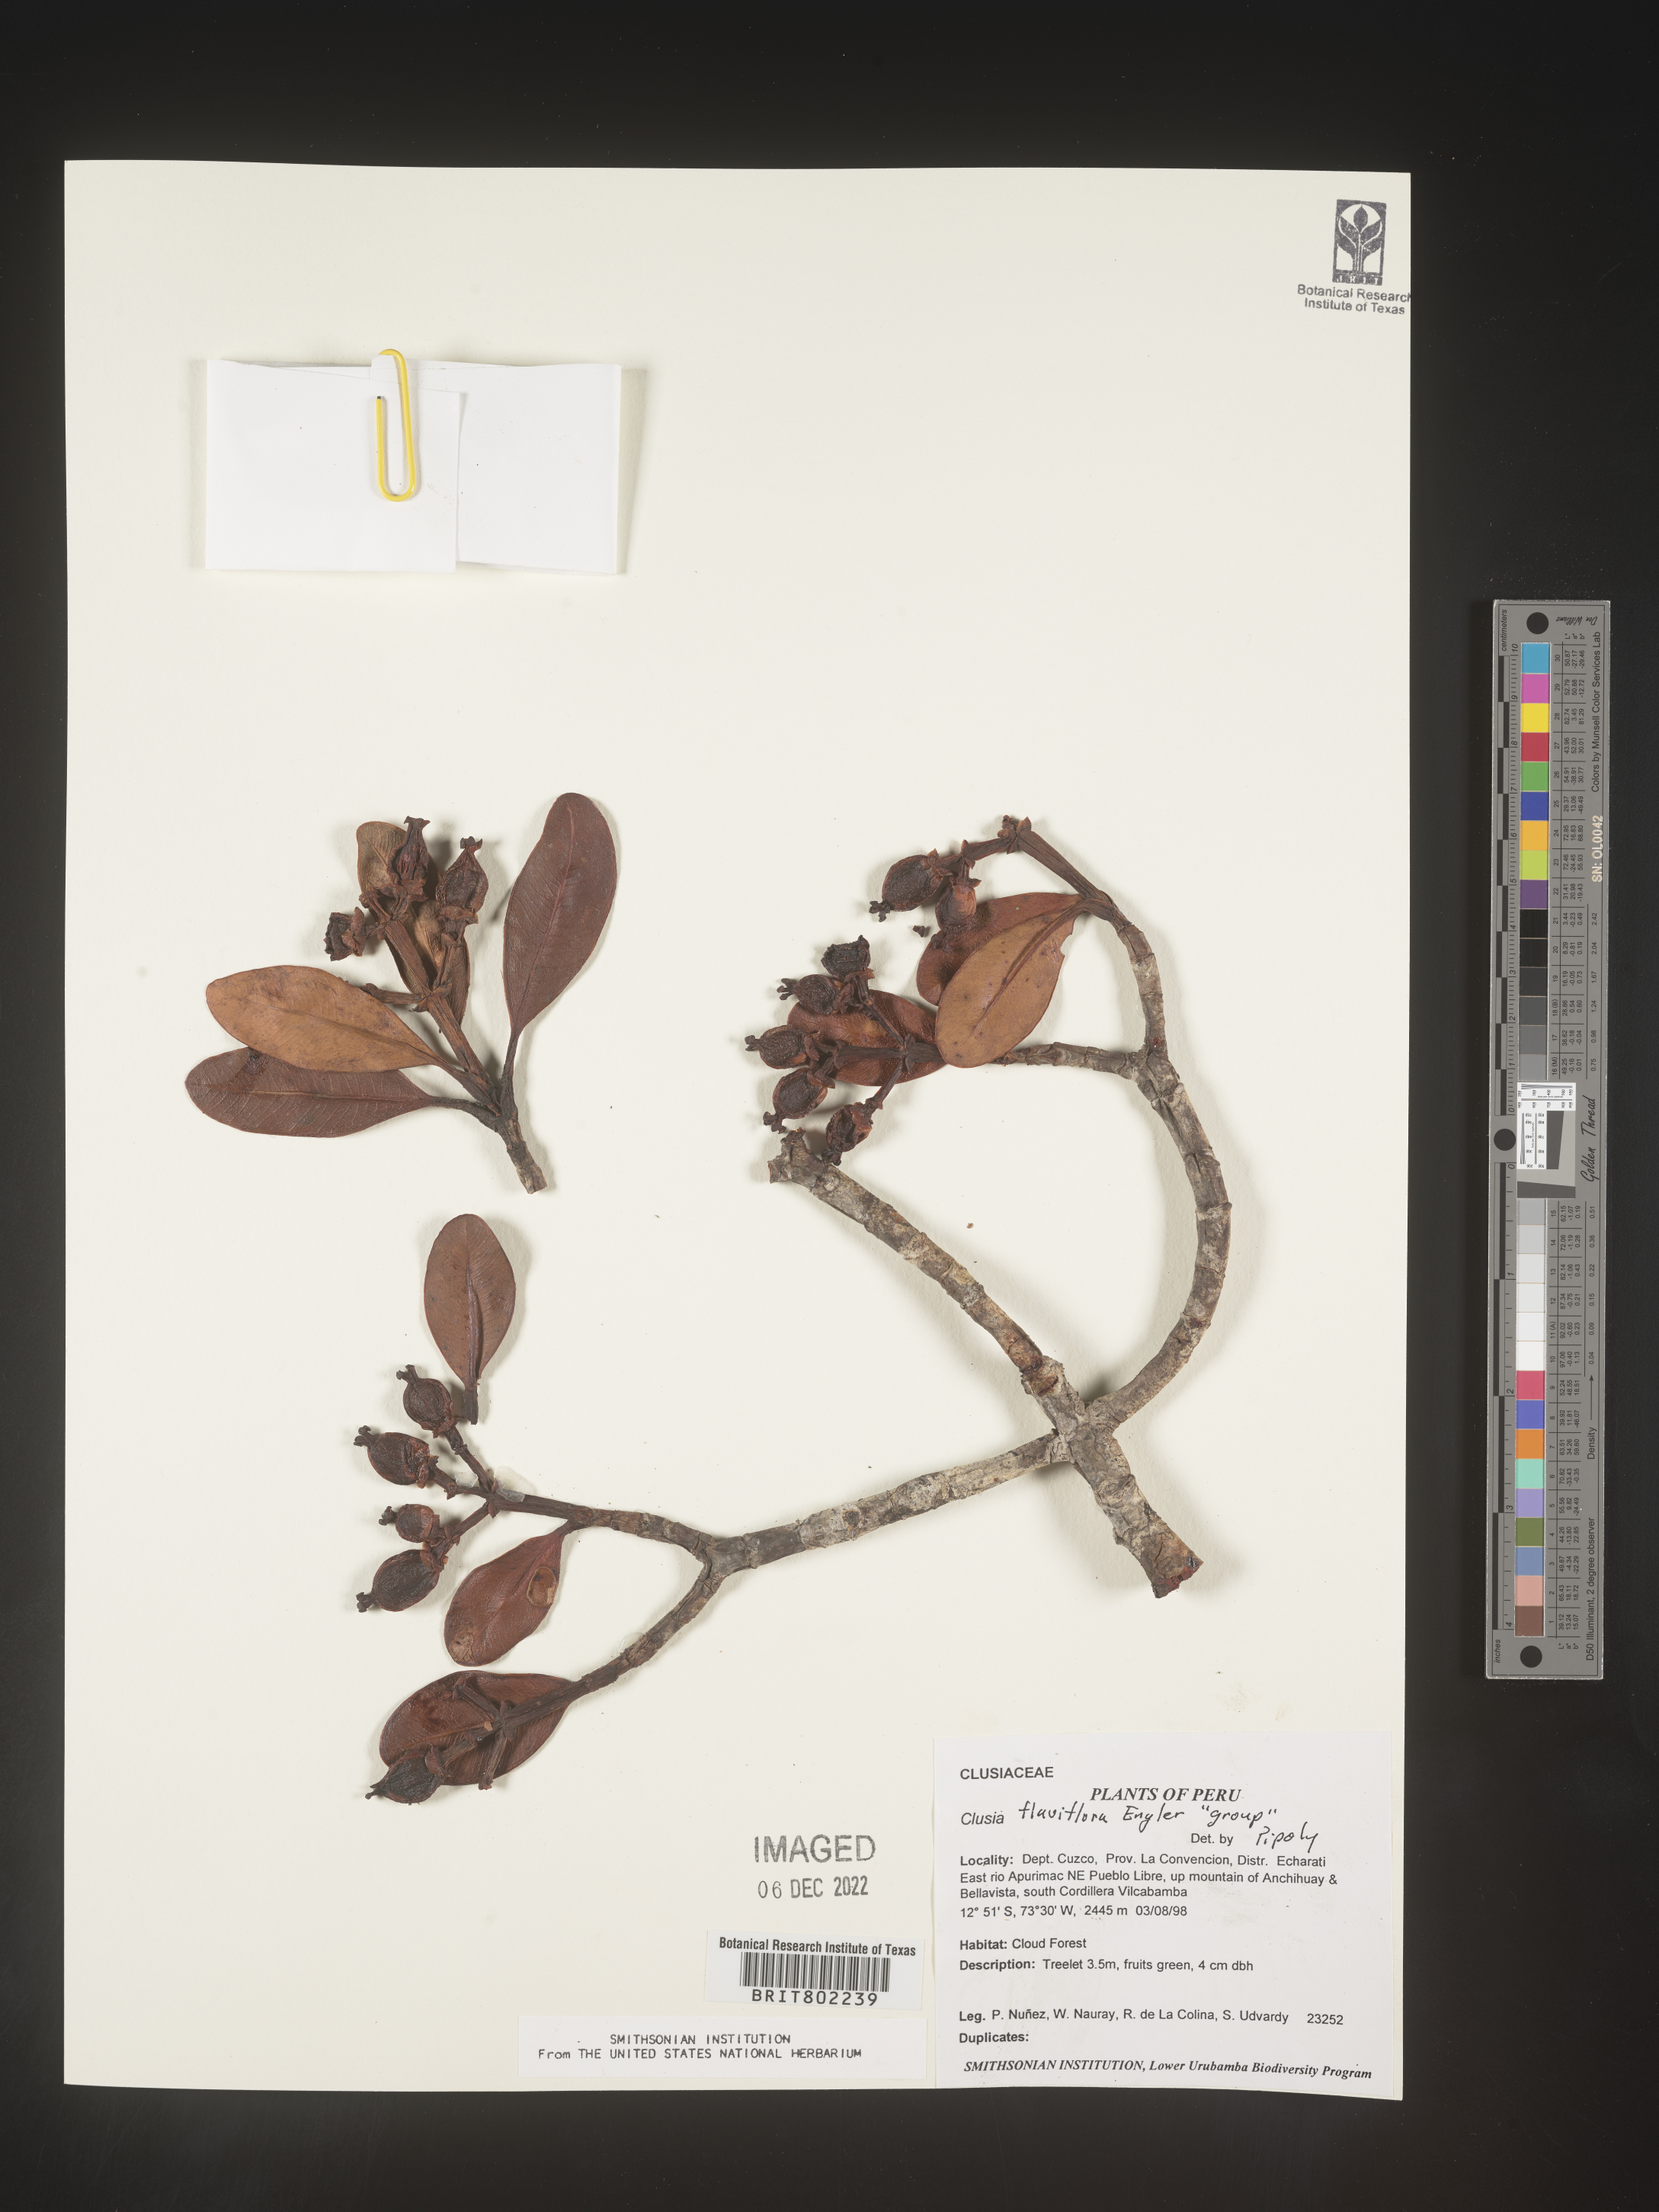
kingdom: Plantae
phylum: Tracheophyta
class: Magnoliopsida
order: Malpighiales
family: Clusiaceae
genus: Clusia
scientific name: Clusia sphaerocarpa
